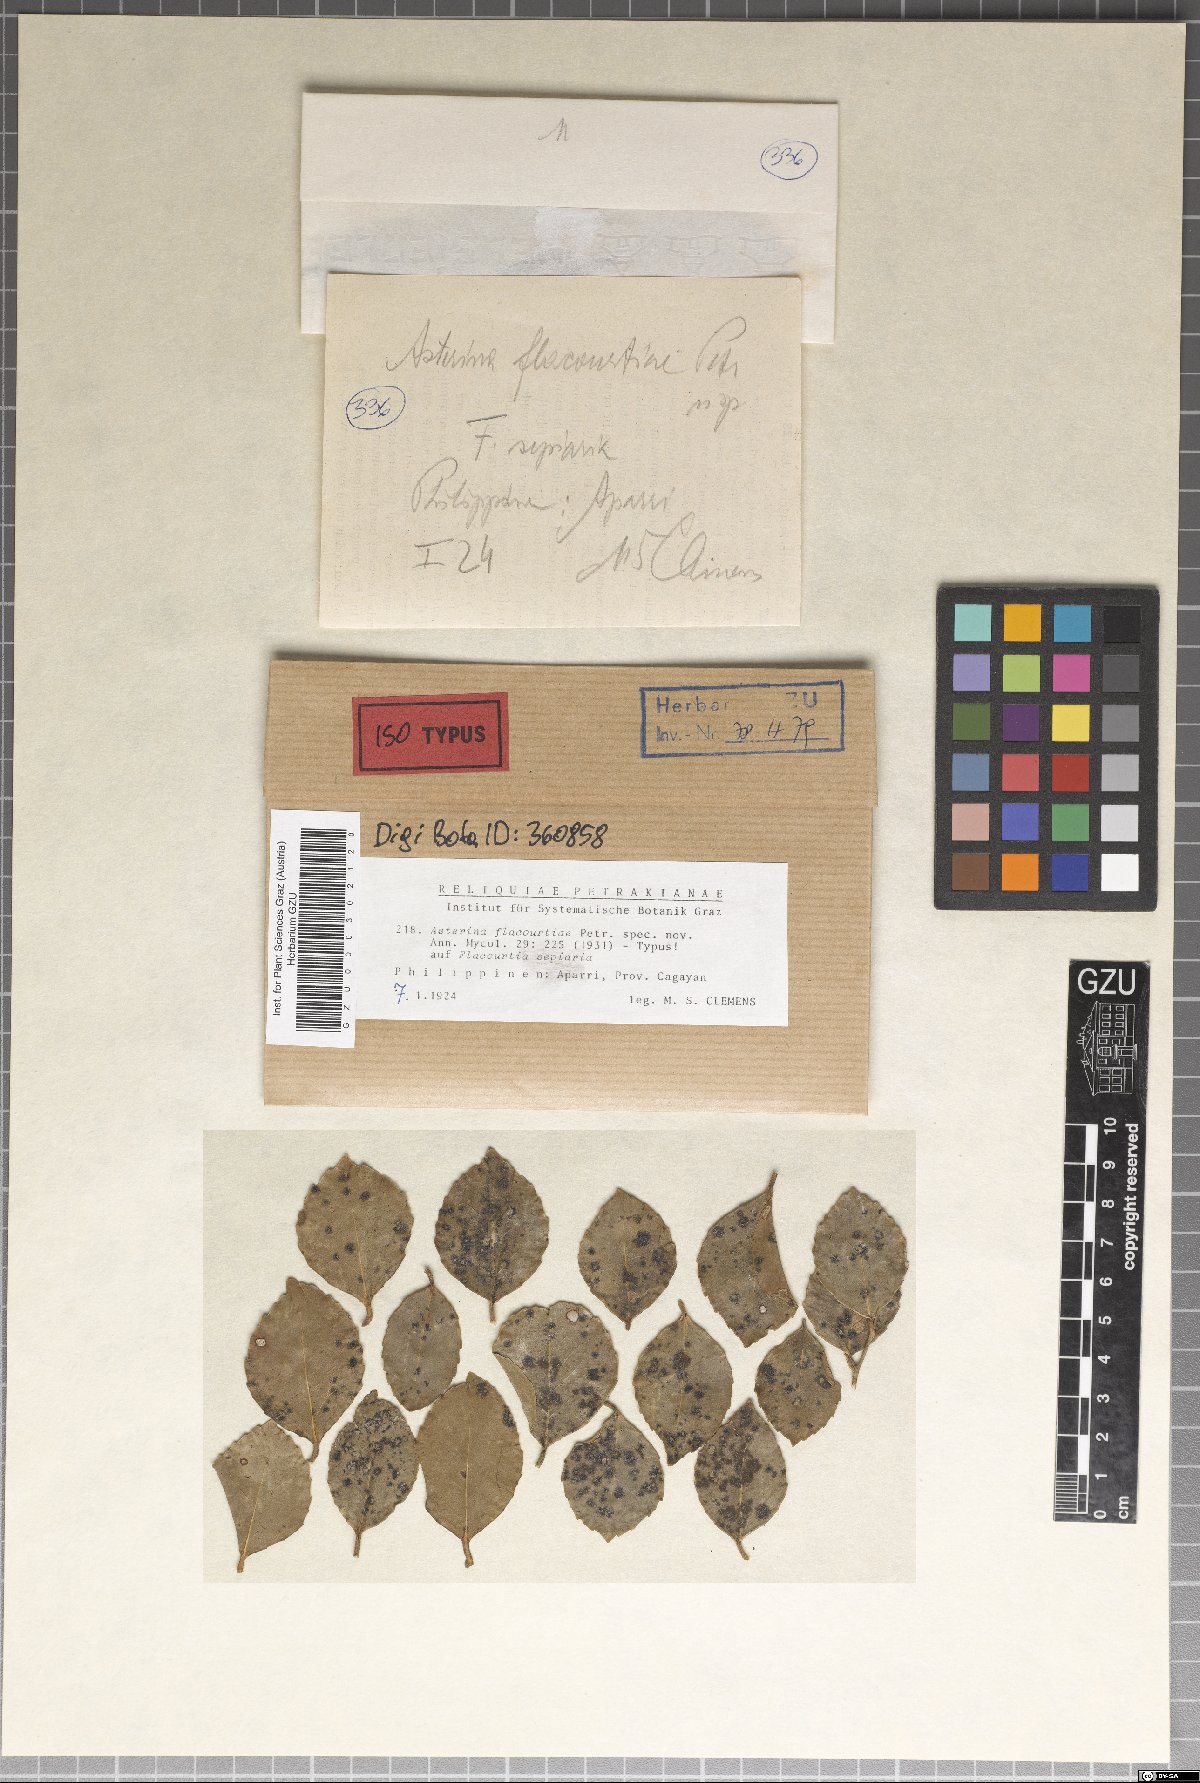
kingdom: Fungi
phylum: Ascomycota
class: Dothideomycetes
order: Asterinales
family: Asterinaceae
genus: Asterina
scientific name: Asterina flacourtiae
